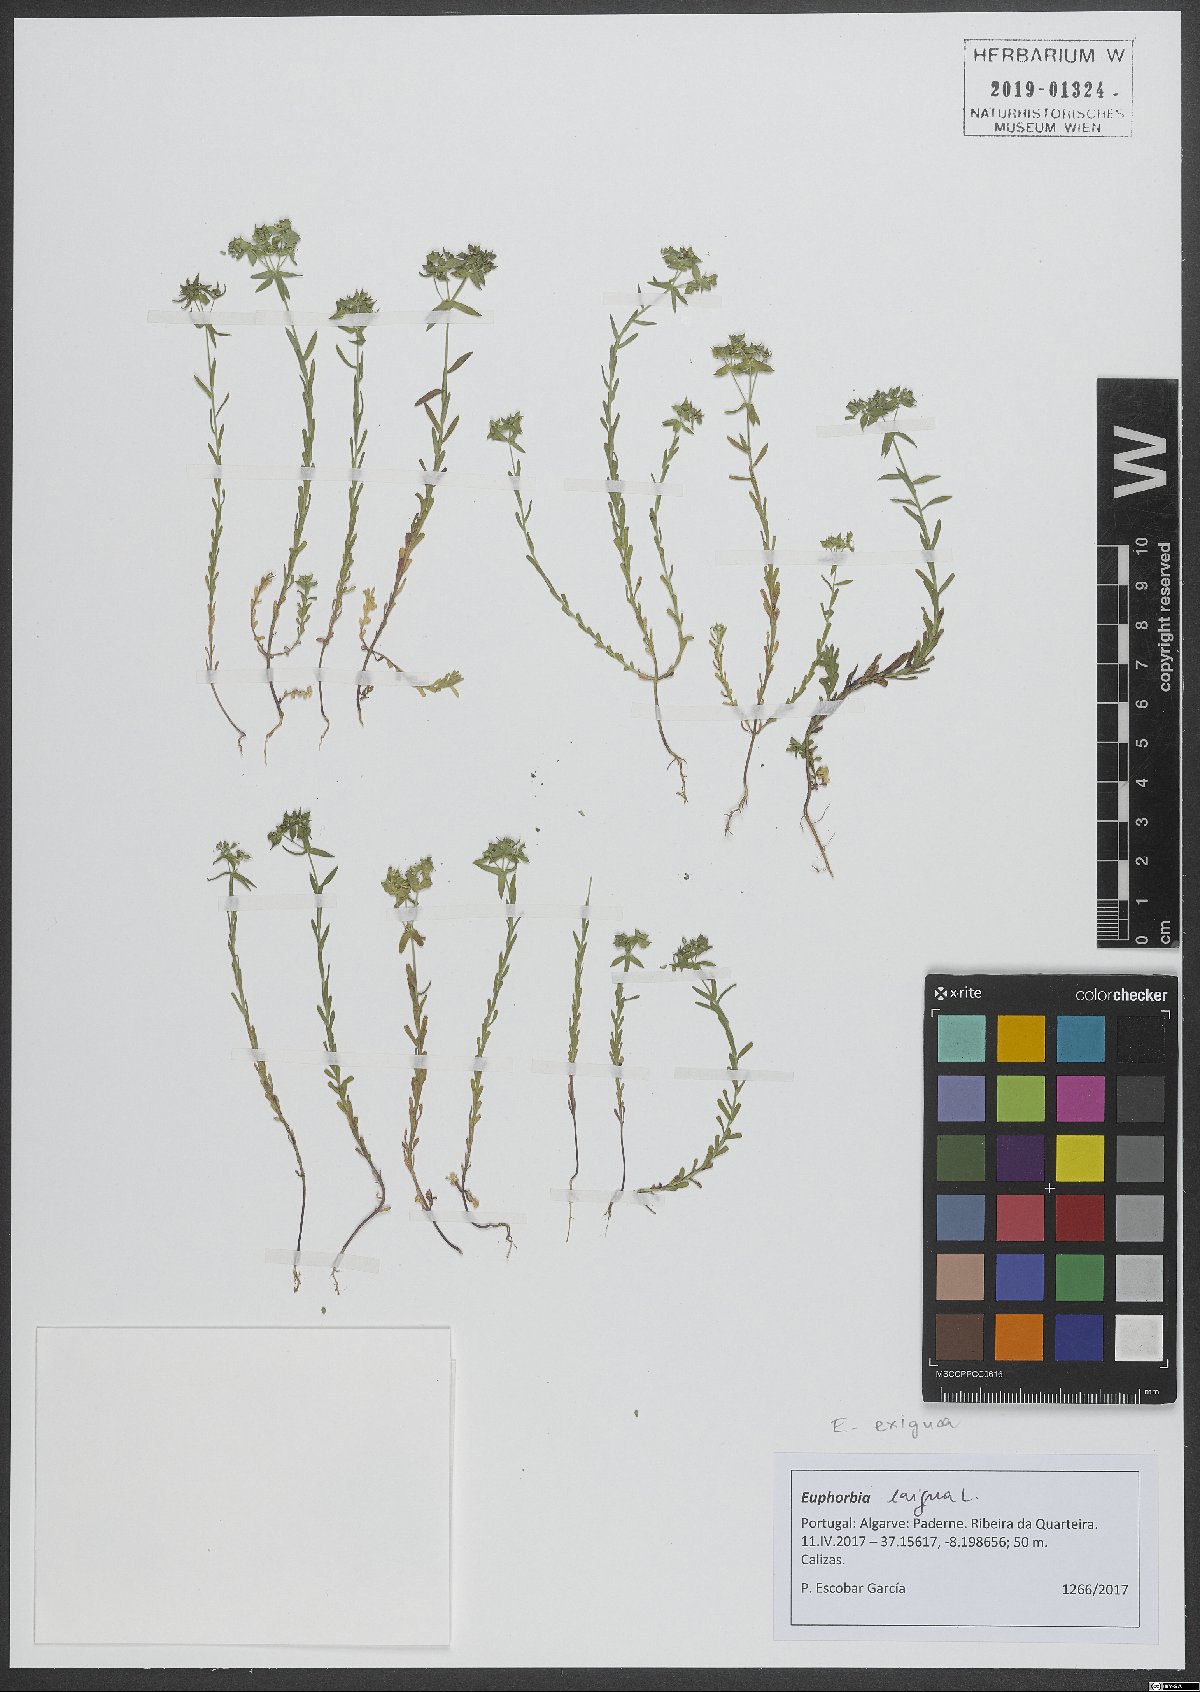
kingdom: Plantae
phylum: Tracheophyta
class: Magnoliopsida
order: Malpighiales
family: Euphorbiaceae
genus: Euphorbia
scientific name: Euphorbia exigua
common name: Dwarf spurge
